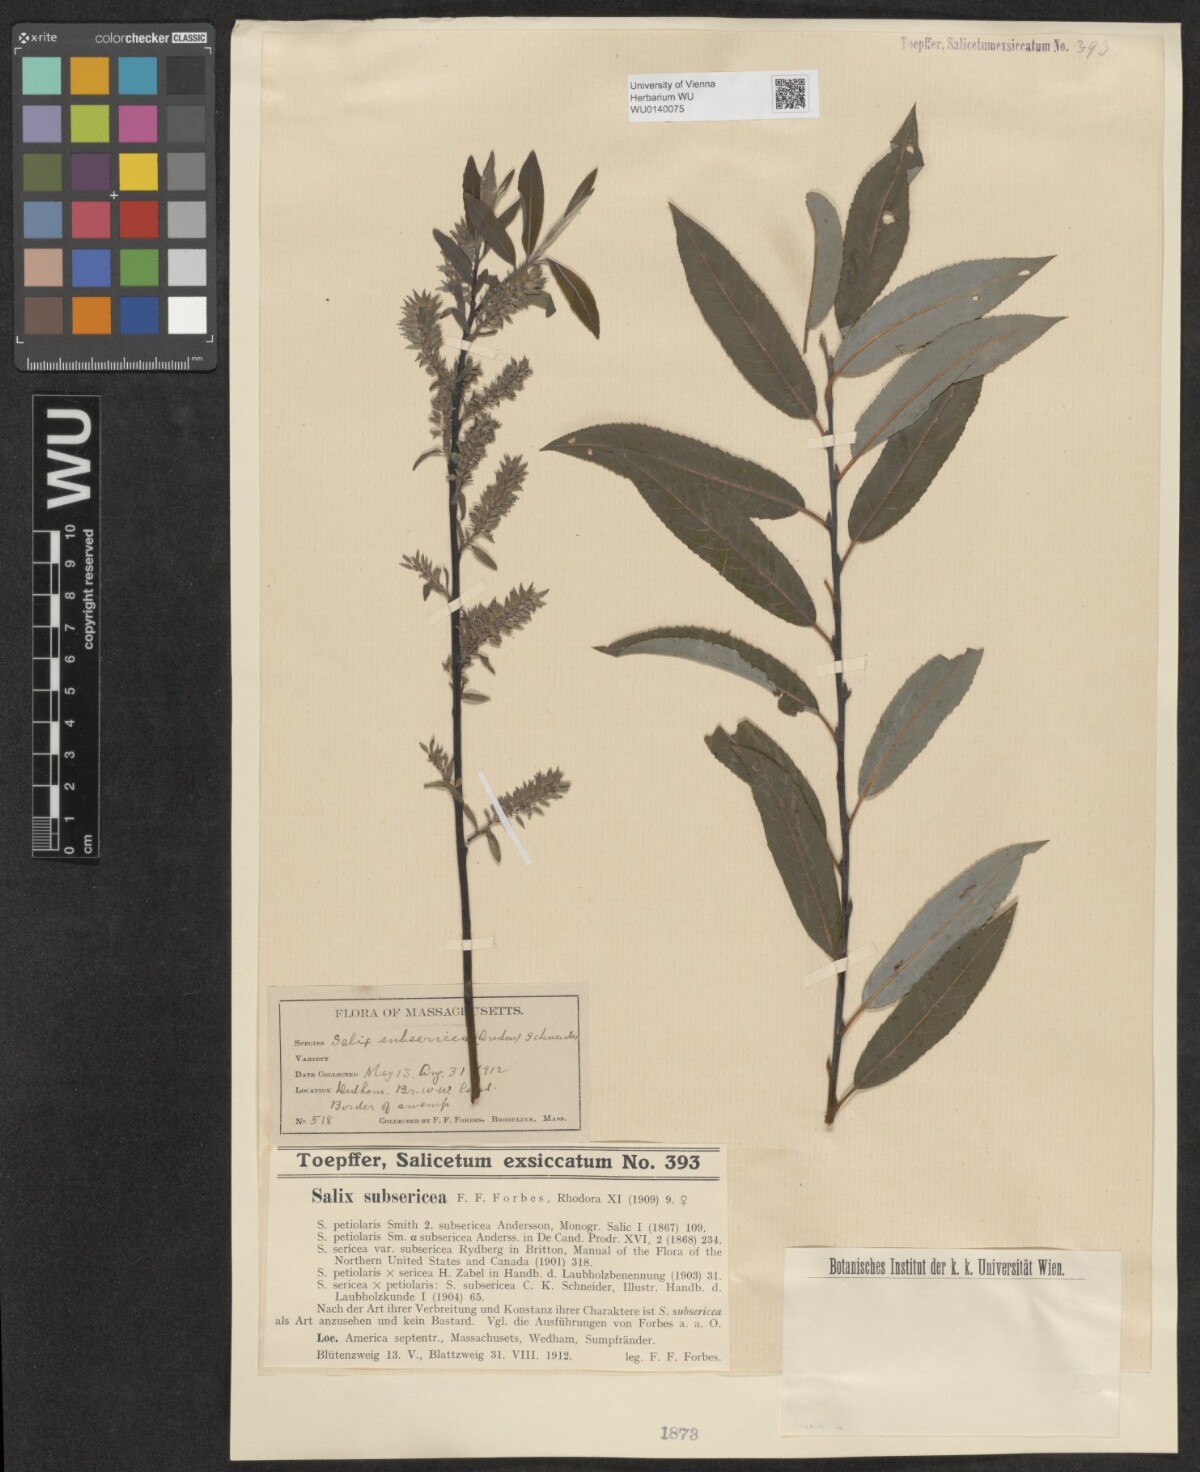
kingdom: Plantae
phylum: Tracheophyta
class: Magnoliopsida
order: Malpighiales
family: Salicaceae
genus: Salix
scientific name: Salix subsericea
